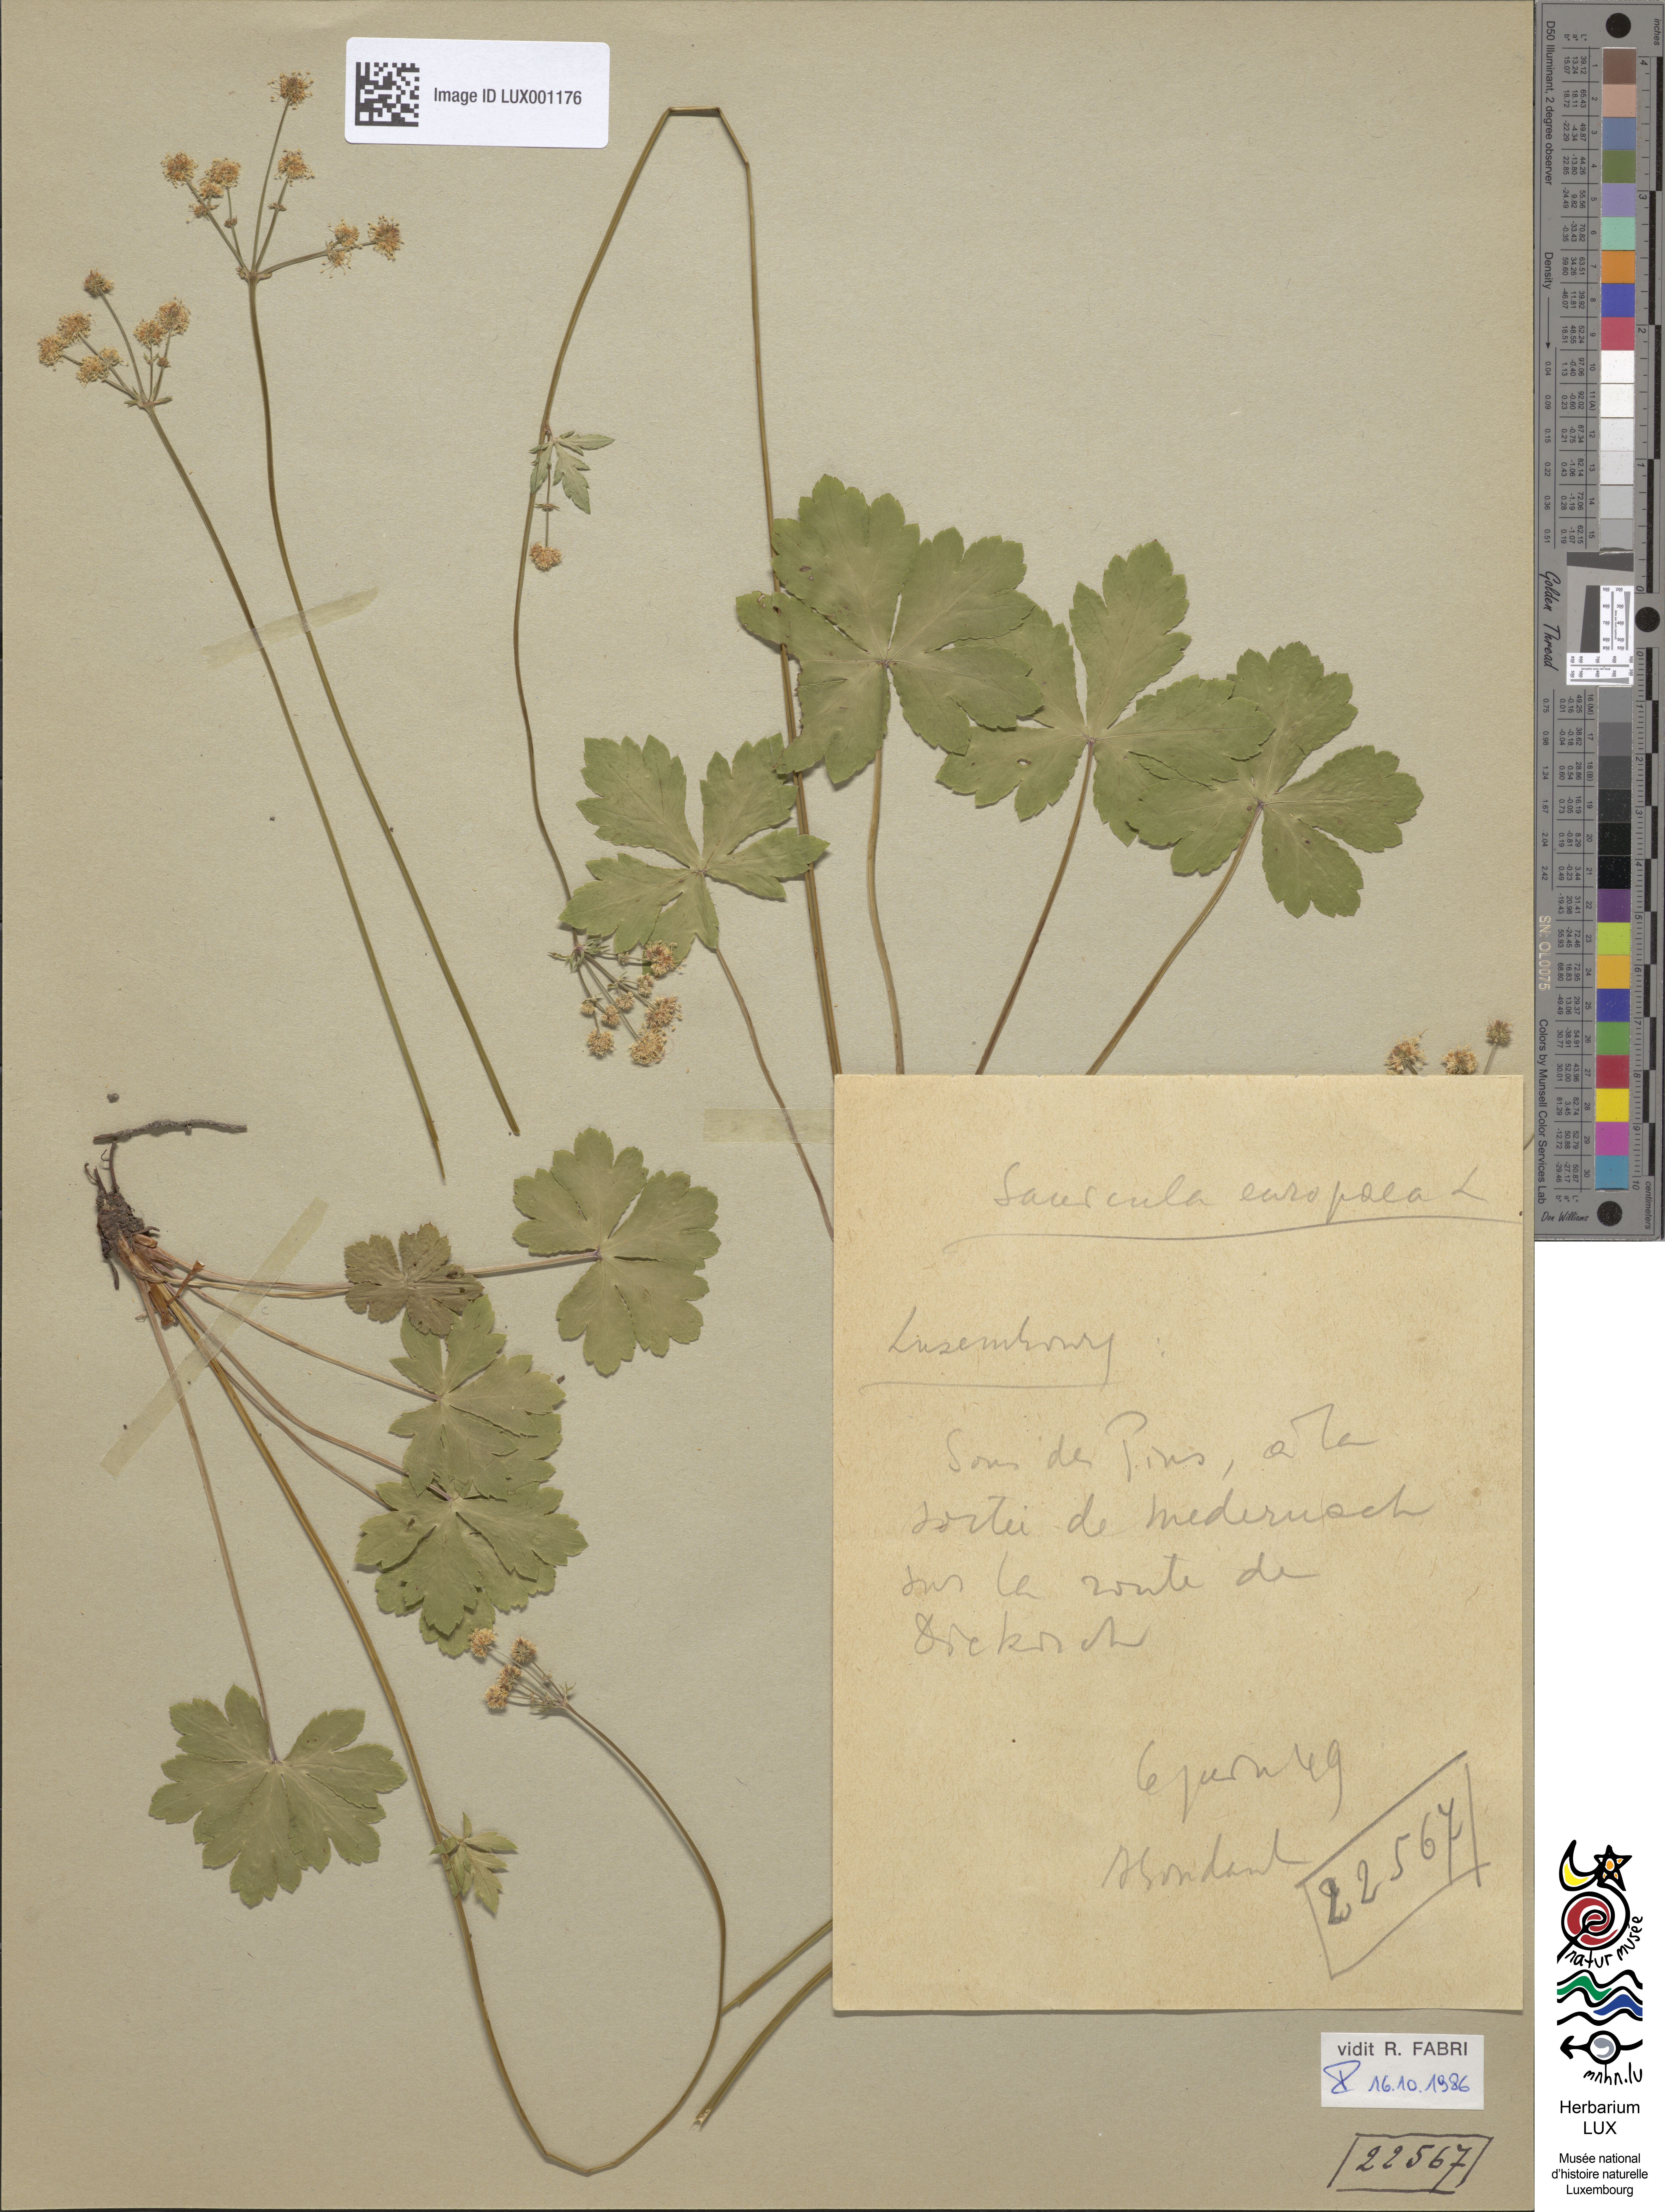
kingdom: Plantae
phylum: Tracheophyta
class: Magnoliopsida
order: Apiales
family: Apiaceae
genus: Sanicula
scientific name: Sanicula europaea
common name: Sanicle
